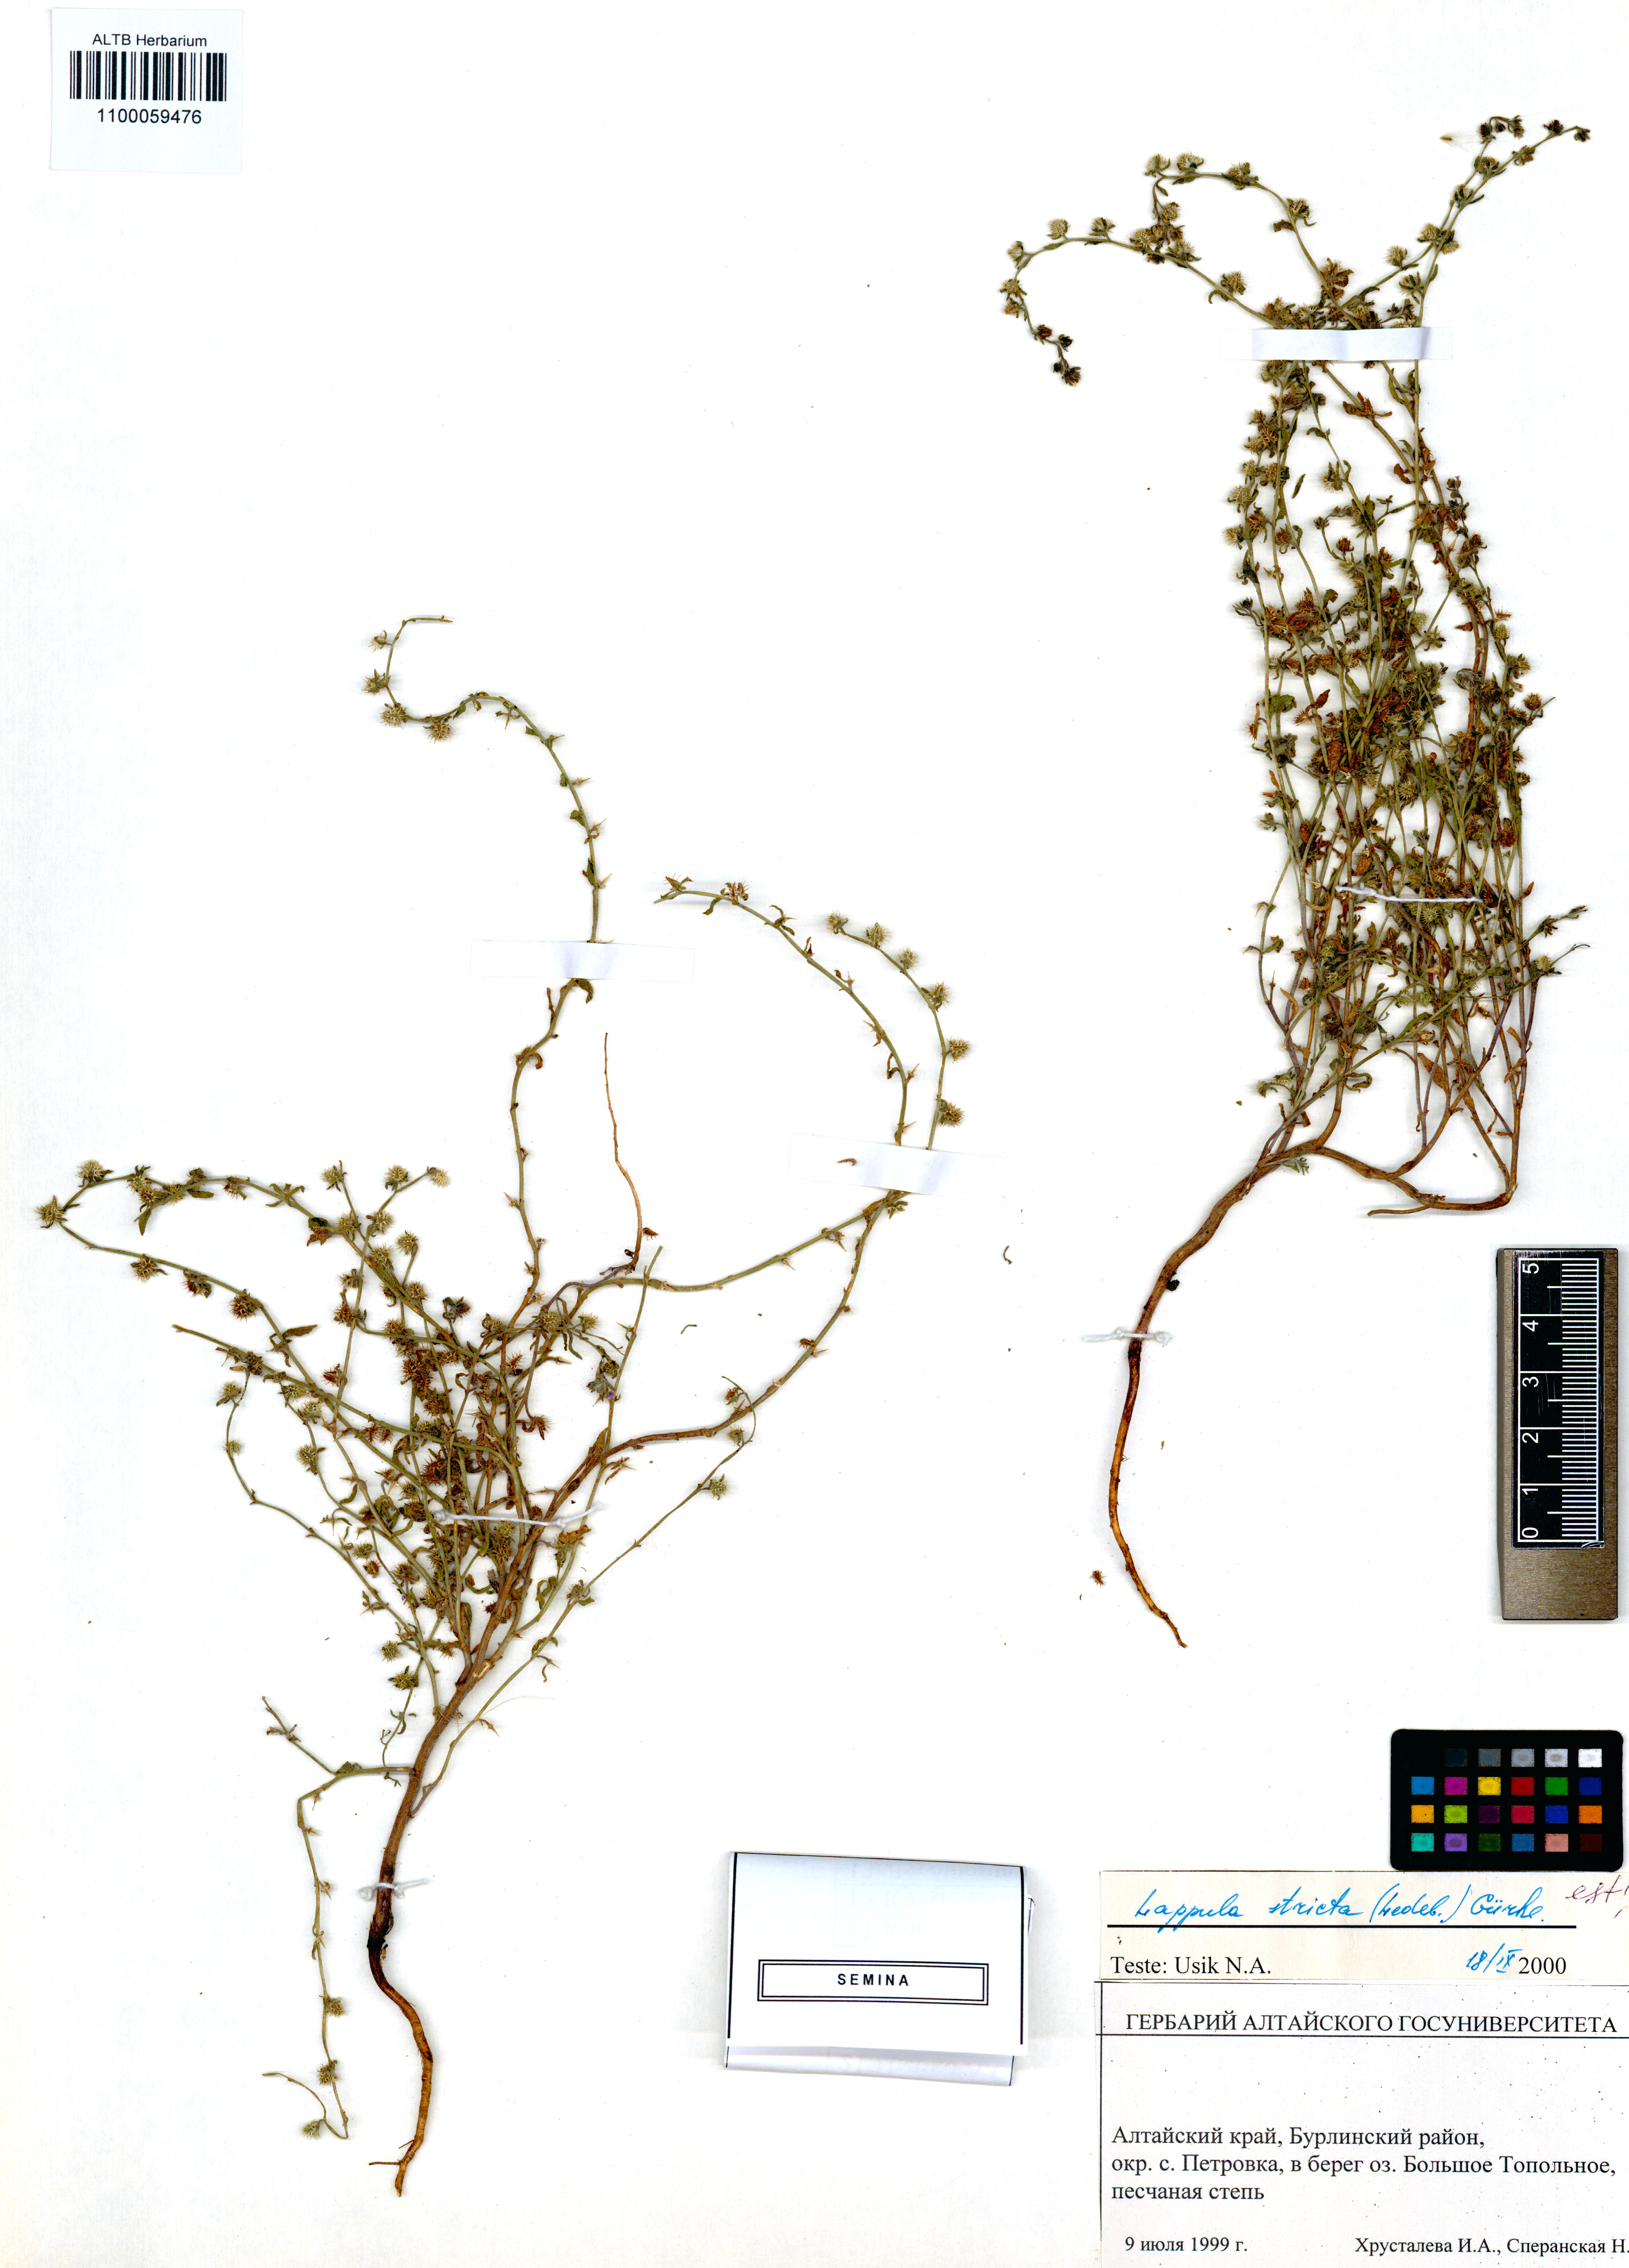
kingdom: Plantae
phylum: Tracheophyta
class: Magnoliopsida
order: Boraginales
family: Boraginaceae
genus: Lappula
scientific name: Lappula stricta
